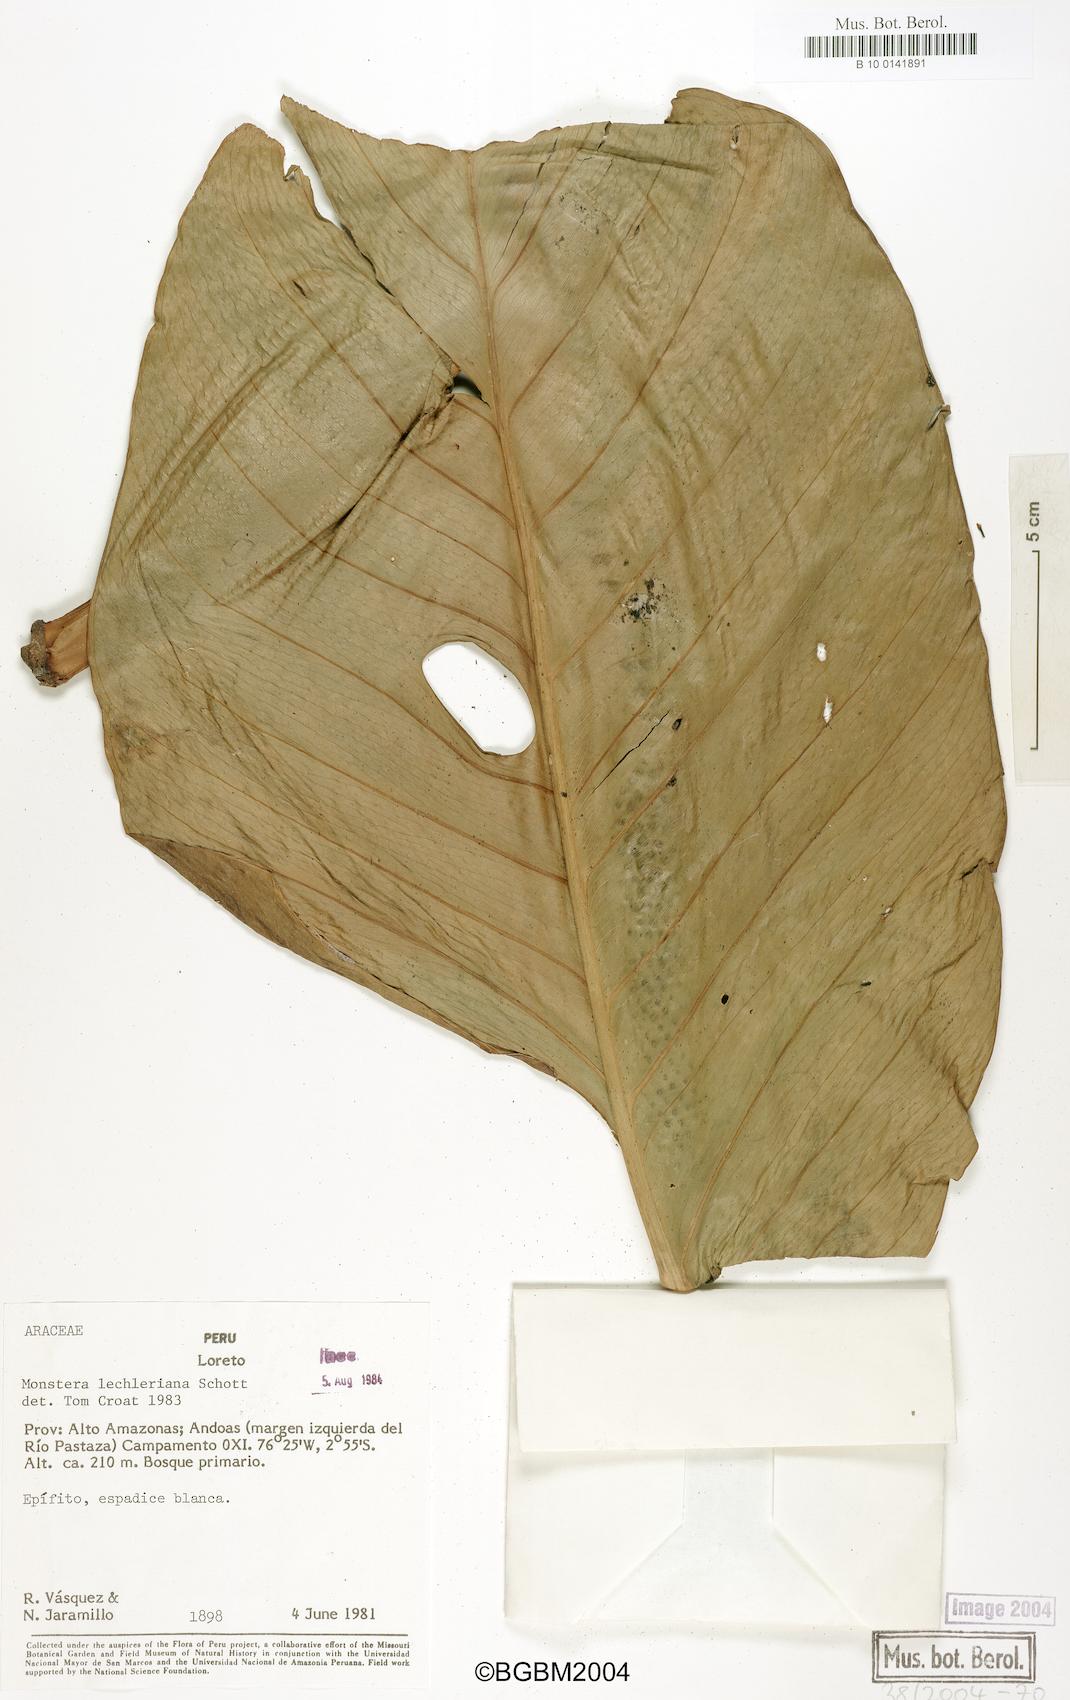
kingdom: Plantae
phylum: Tracheophyta
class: Liliopsida
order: Alismatales
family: Araceae
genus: Monstera
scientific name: Monstera lechleriana
